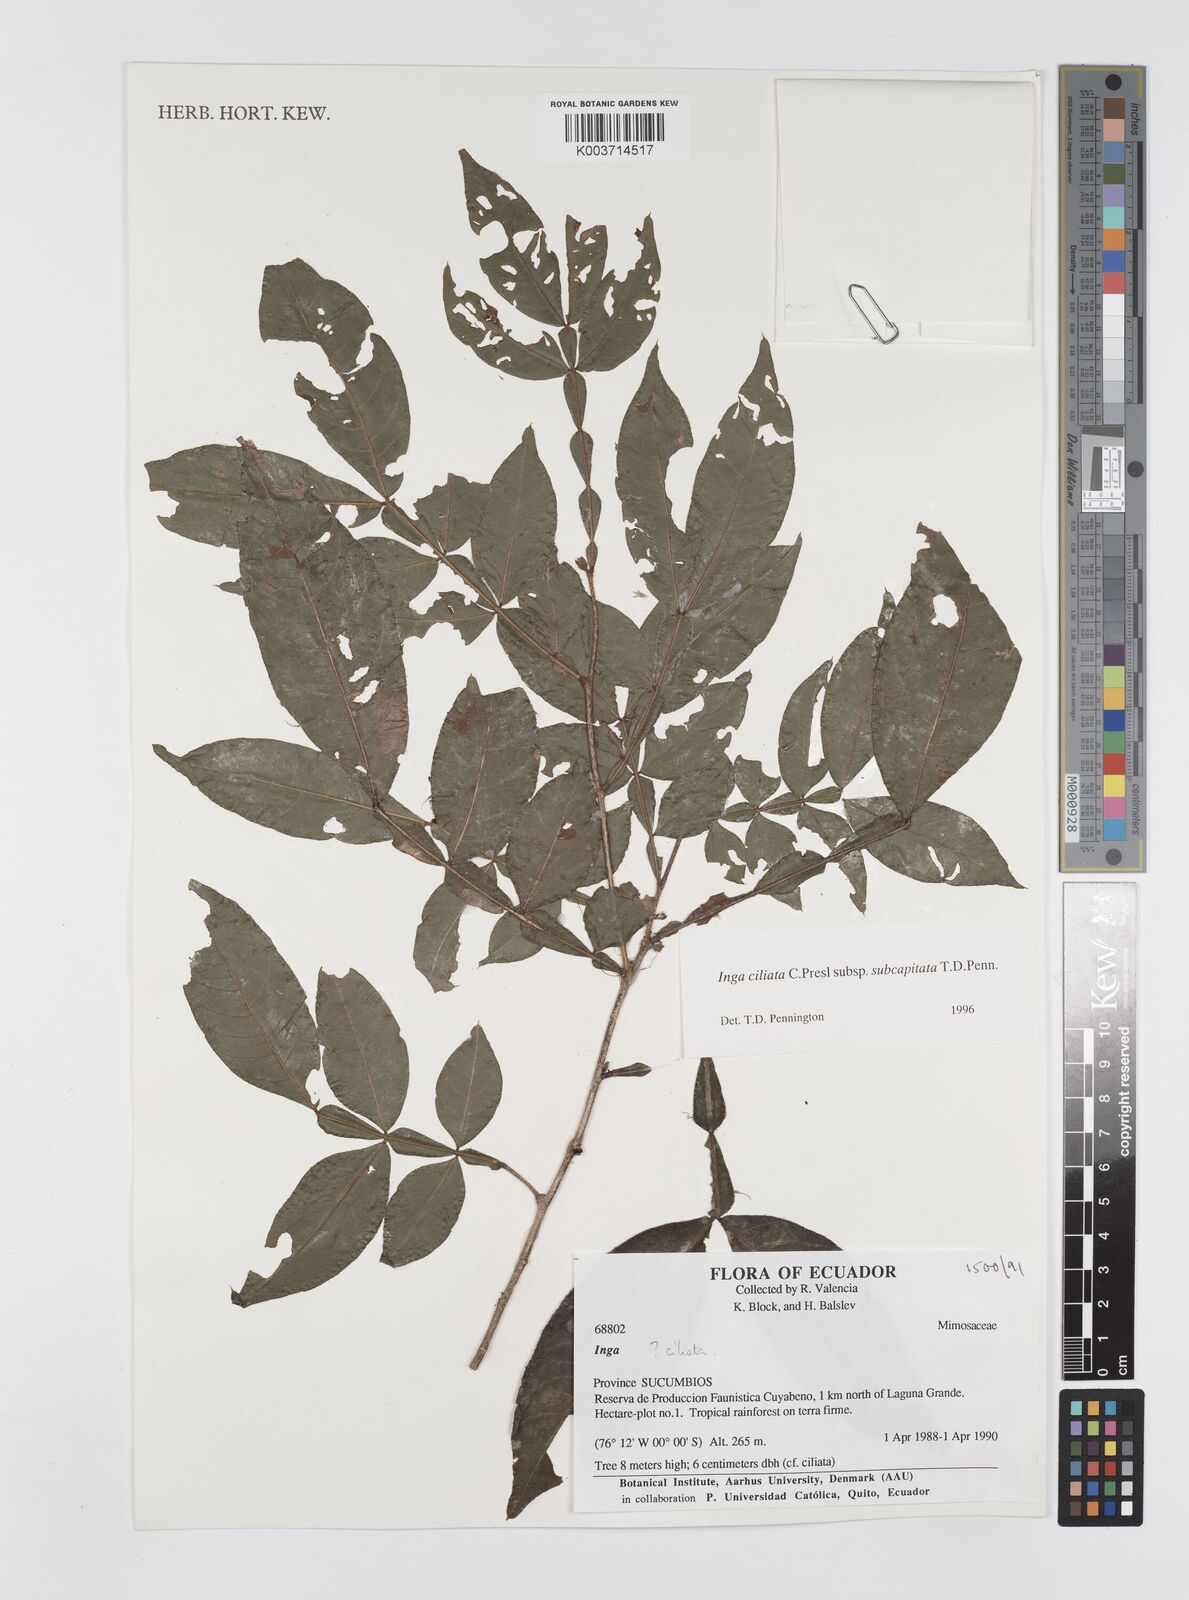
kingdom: Plantae
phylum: Tracheophyta
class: Magnoliopsida
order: Fabales
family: Fabaceae
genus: Inga
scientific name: Inga ciliata
